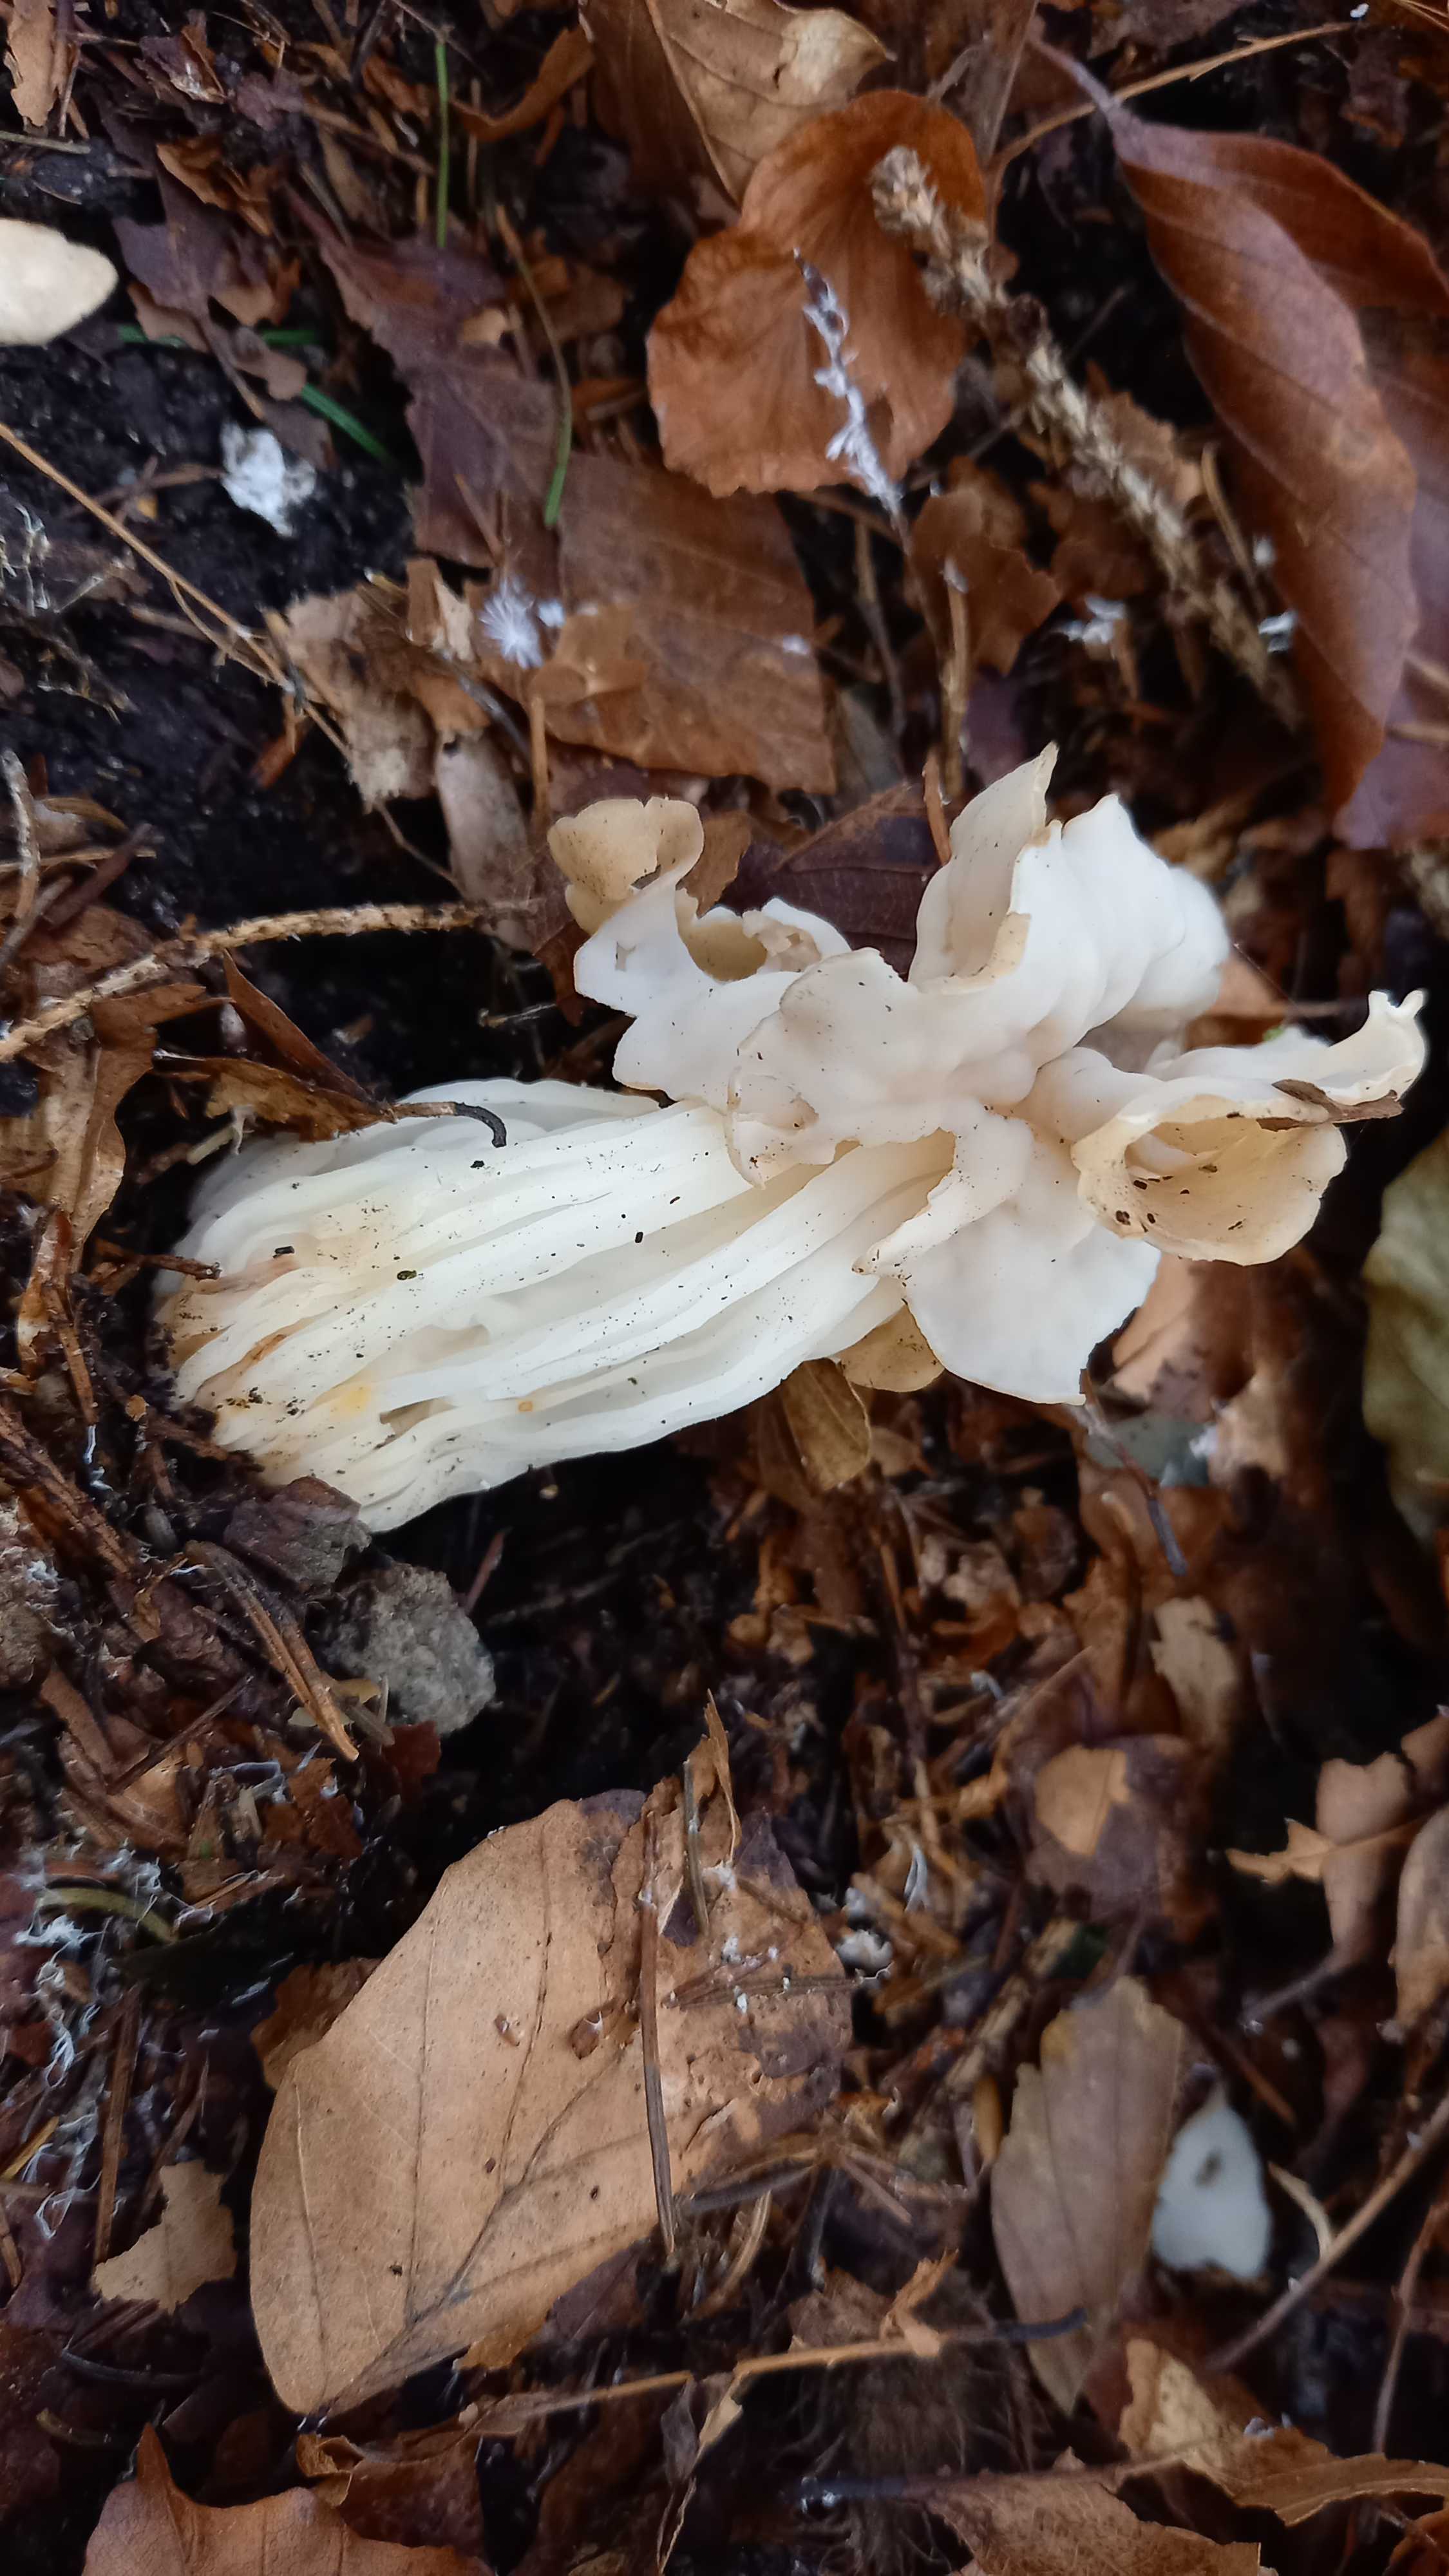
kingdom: Fungi
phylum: Ascomycota
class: Pezizomycetes
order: Pezizales
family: Helvellaceae
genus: Helvella
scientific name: Helvella crispa
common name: kruset foldhat
